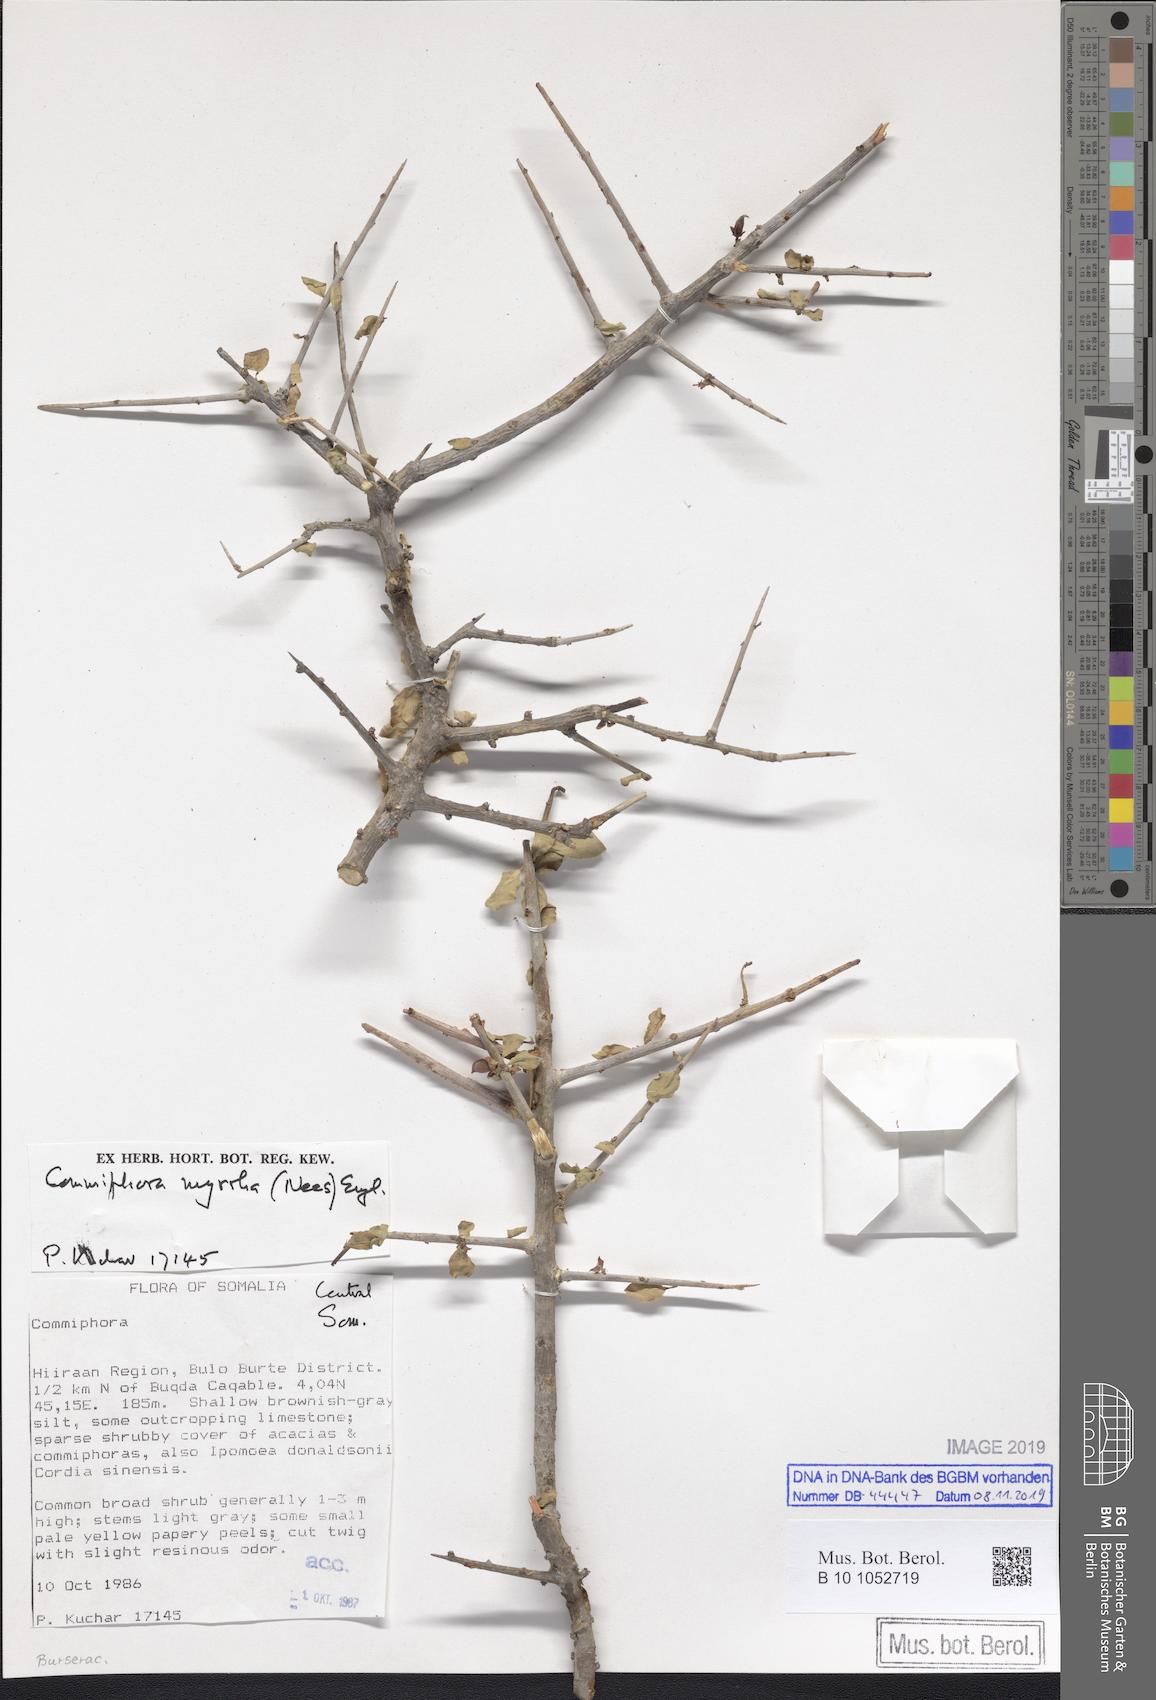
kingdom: Plantae
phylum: Tracheophyta
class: Magnoliopsida
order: Sapindales
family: Burseraceae
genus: Commiphora
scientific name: Commiphora myrrha
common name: African myrrh
